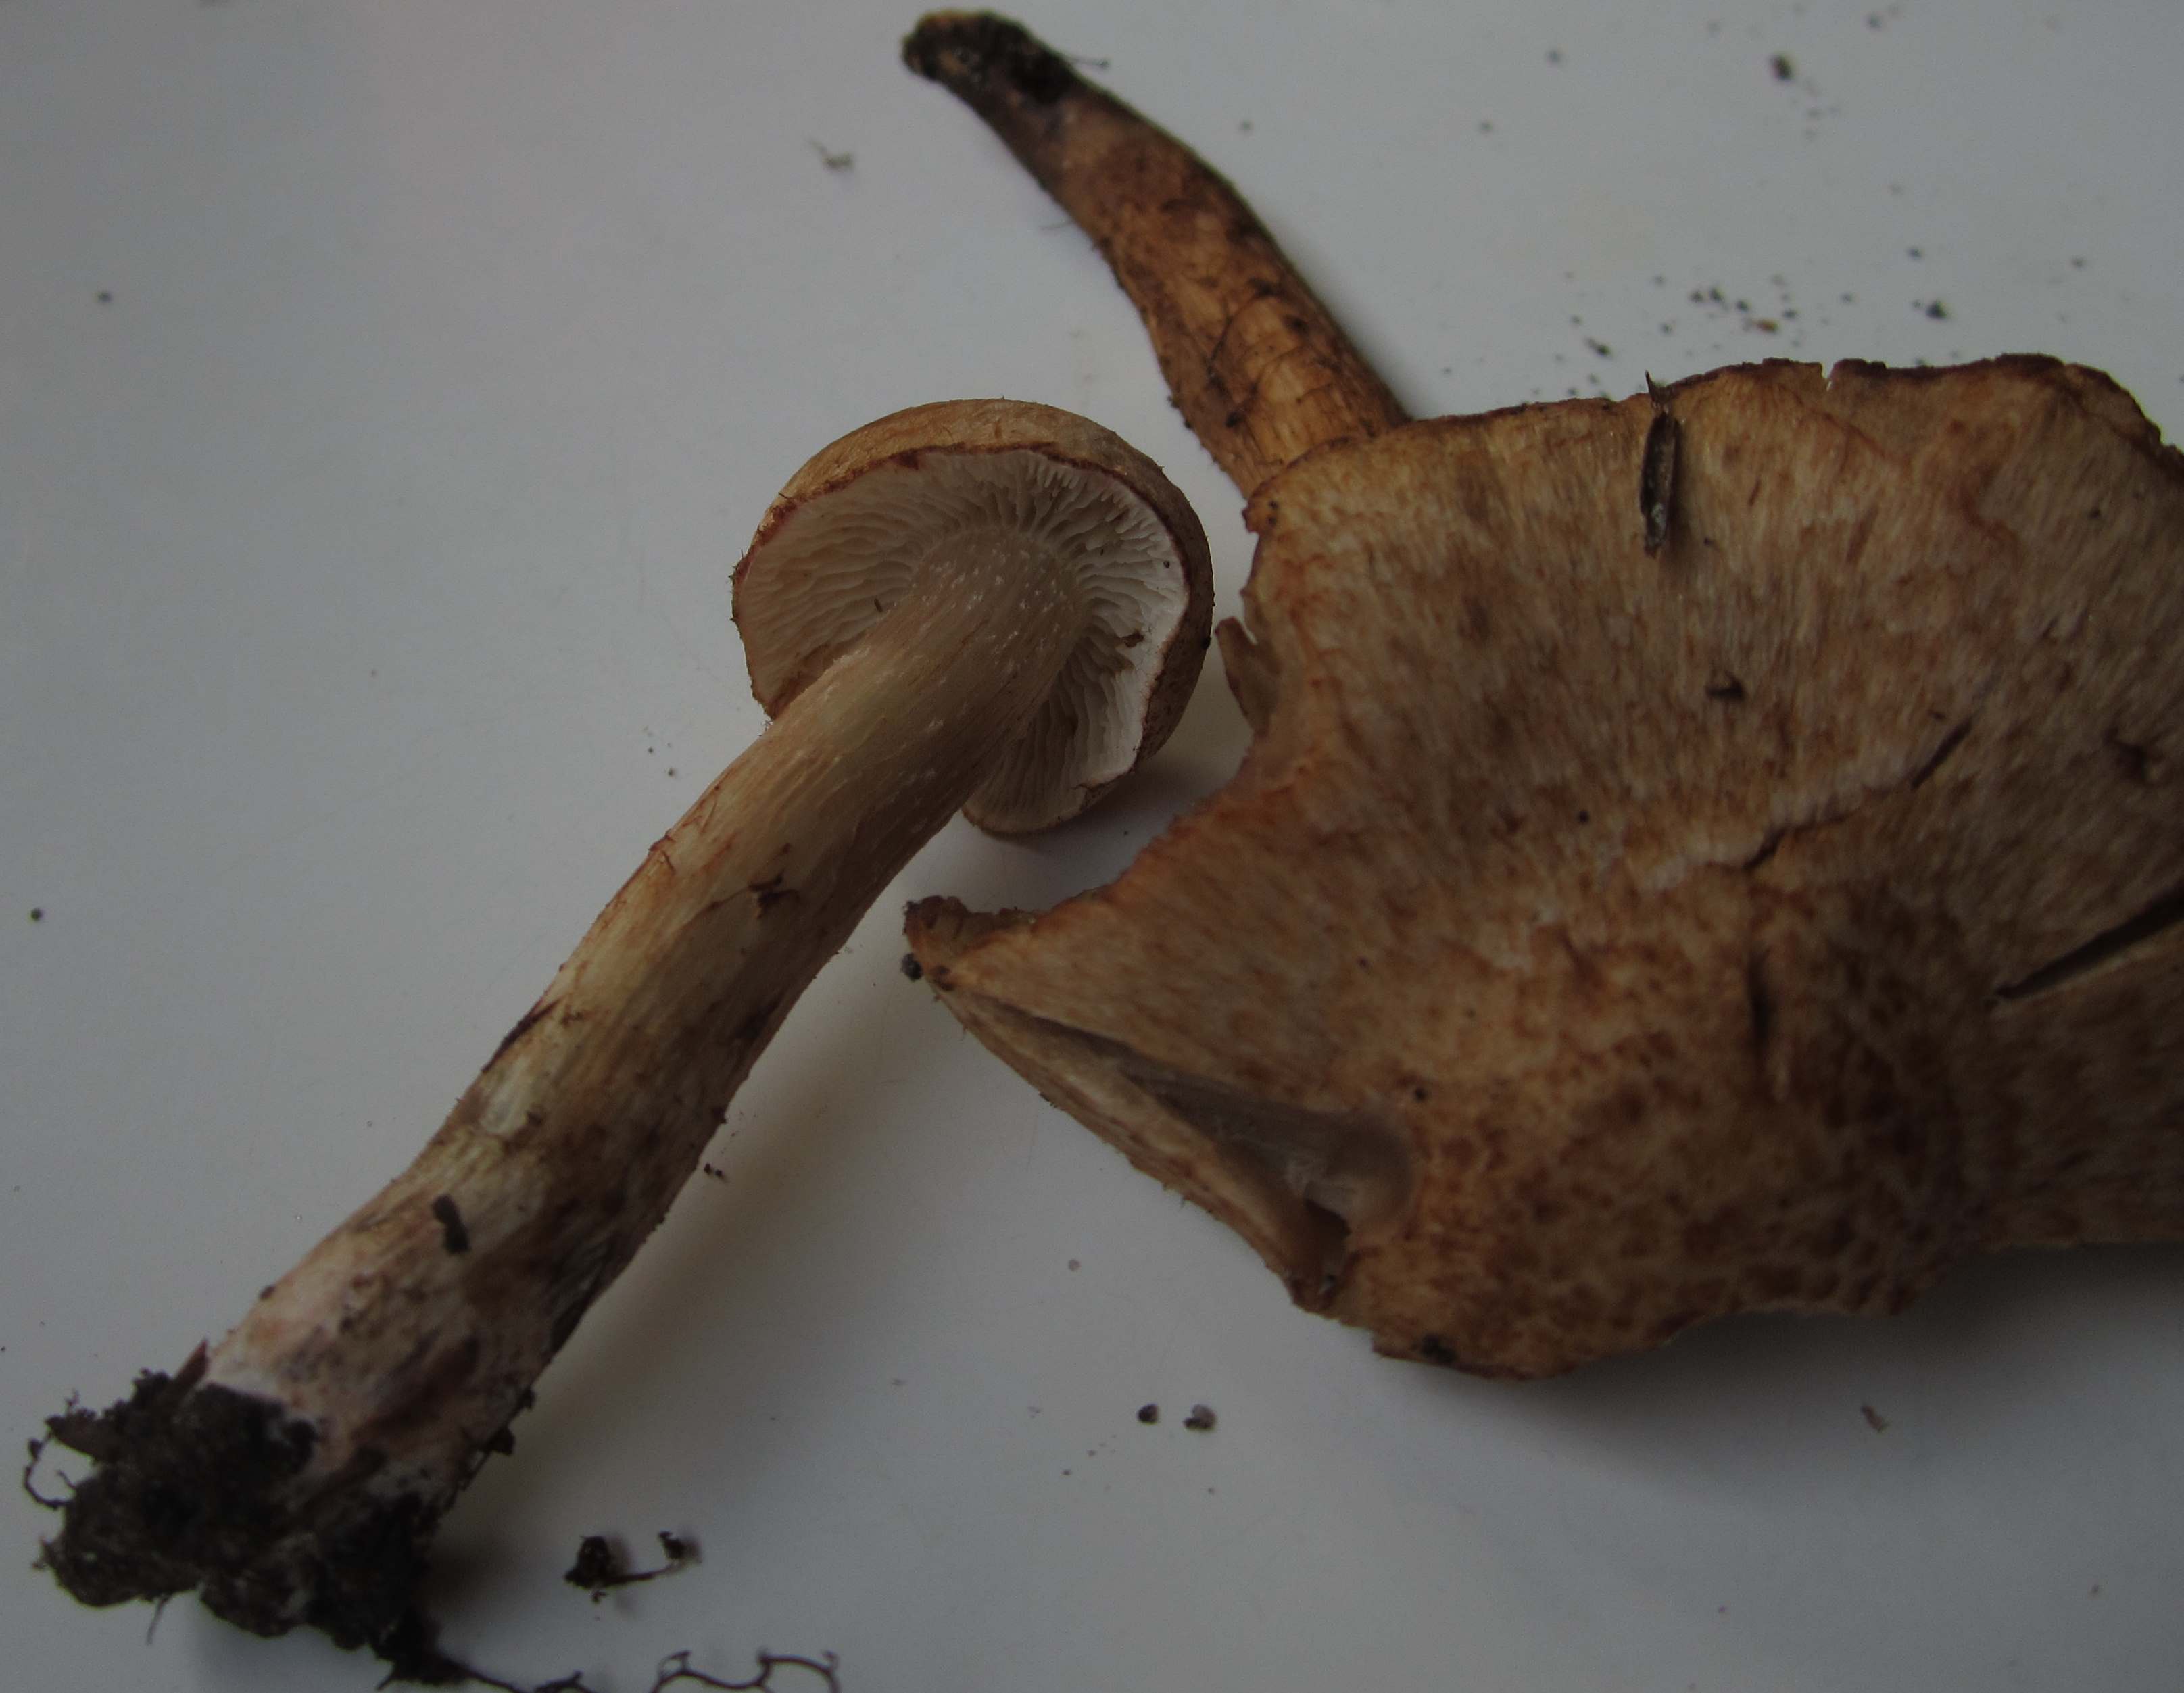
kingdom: Fungi
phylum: Basidiomycota
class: Agaricomycetes
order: Agaricales
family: Inocybaceae
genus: Inosperma
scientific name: Inosperma bongardii
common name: Bongards trævlhat
